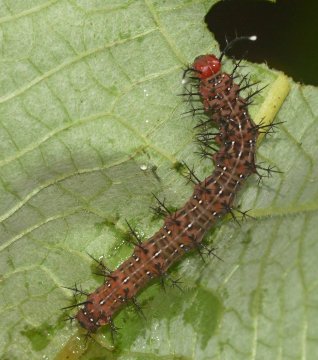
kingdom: Animalia
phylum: Arthropoda
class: Insecta
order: Lepidoptera
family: Nymphalidae
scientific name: Nymphalidae
